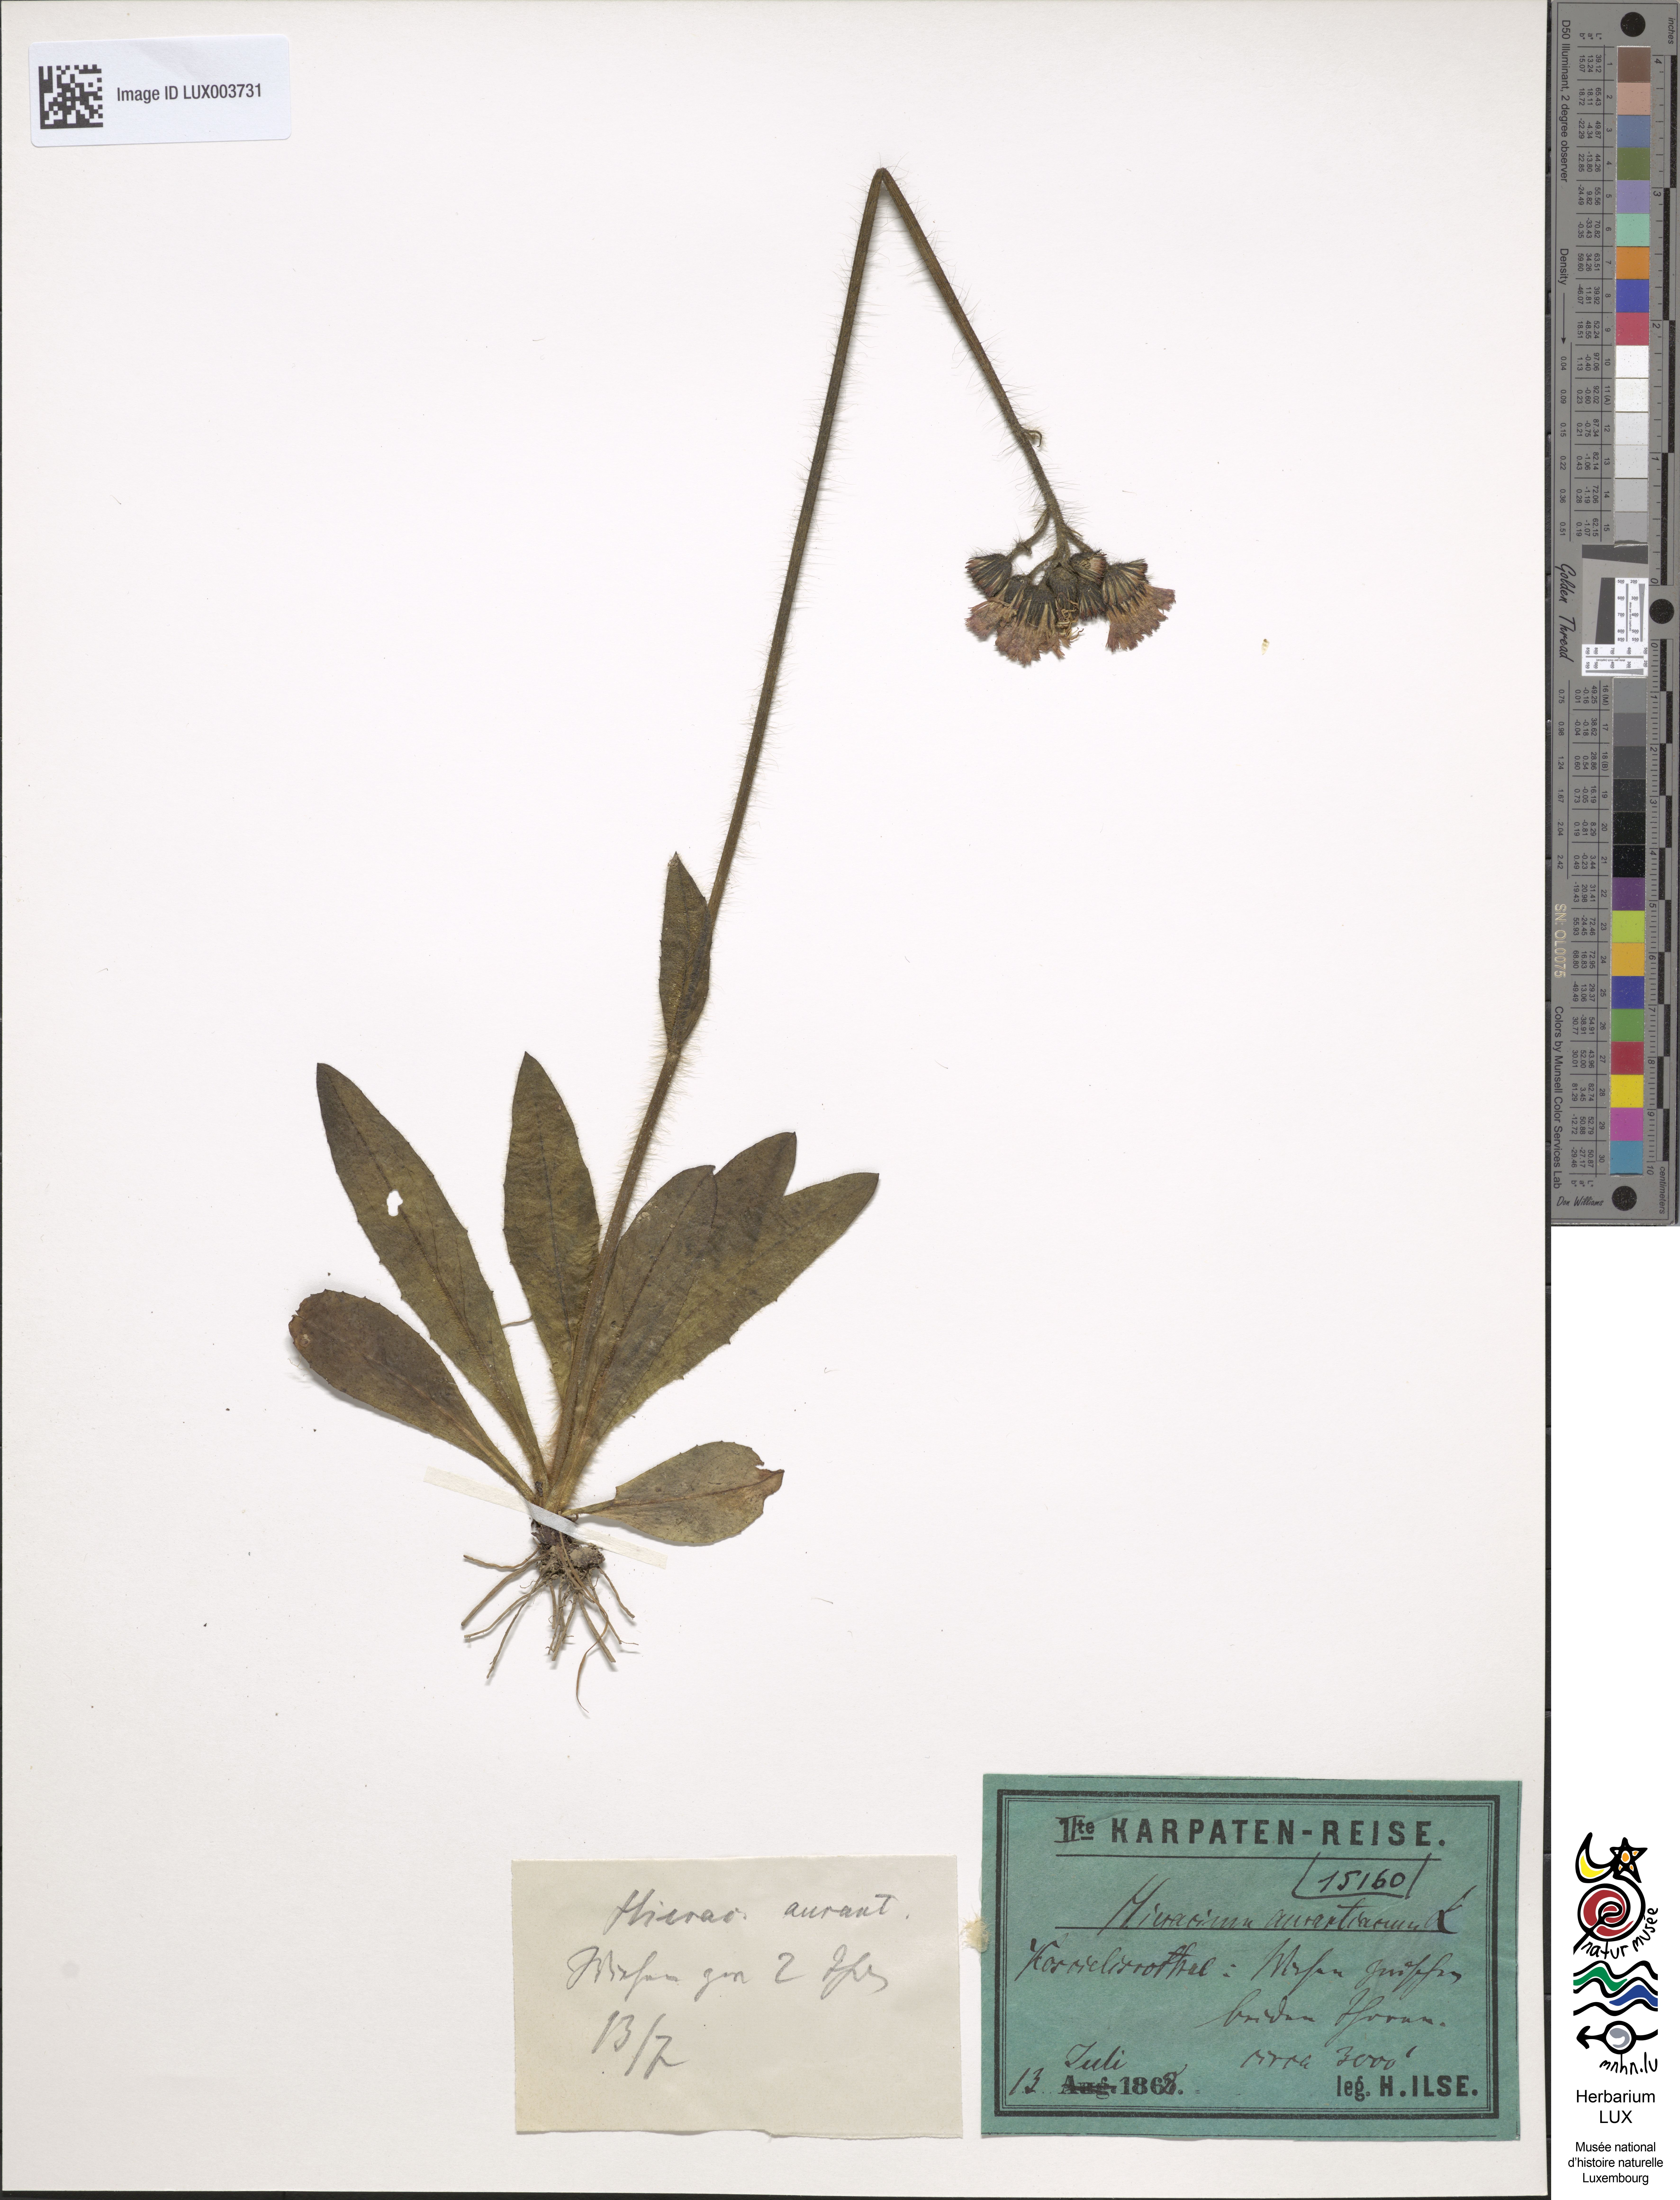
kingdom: Plantae
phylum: Tracheophyta
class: Magnoliopsida
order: Asterales
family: Asteraceae
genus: Pilosella
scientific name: Pilosella aurantiaca
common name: Fox-and-cubs
